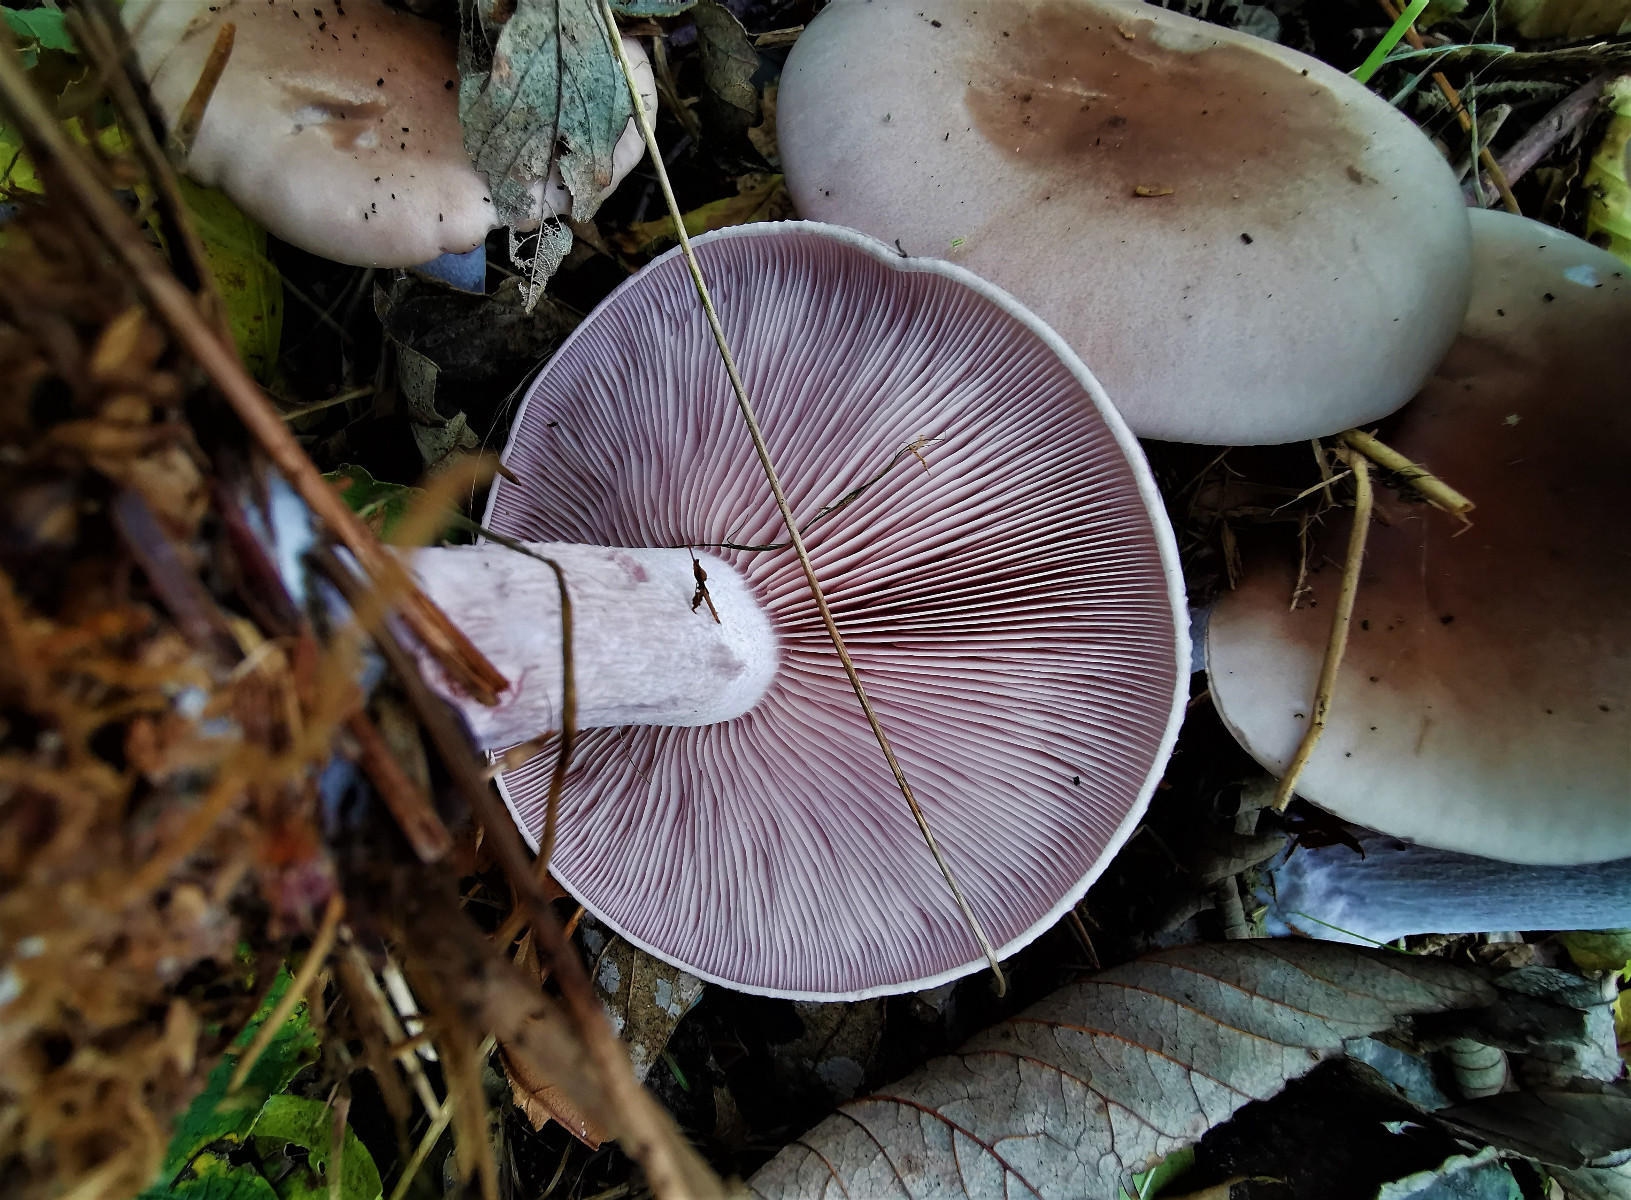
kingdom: Fungi
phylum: Basidiomycota
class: Agaricomycetes
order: Agaricales
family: Tricholomataceae
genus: Lepista
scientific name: Lepista nuda
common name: violet hekseringshat
